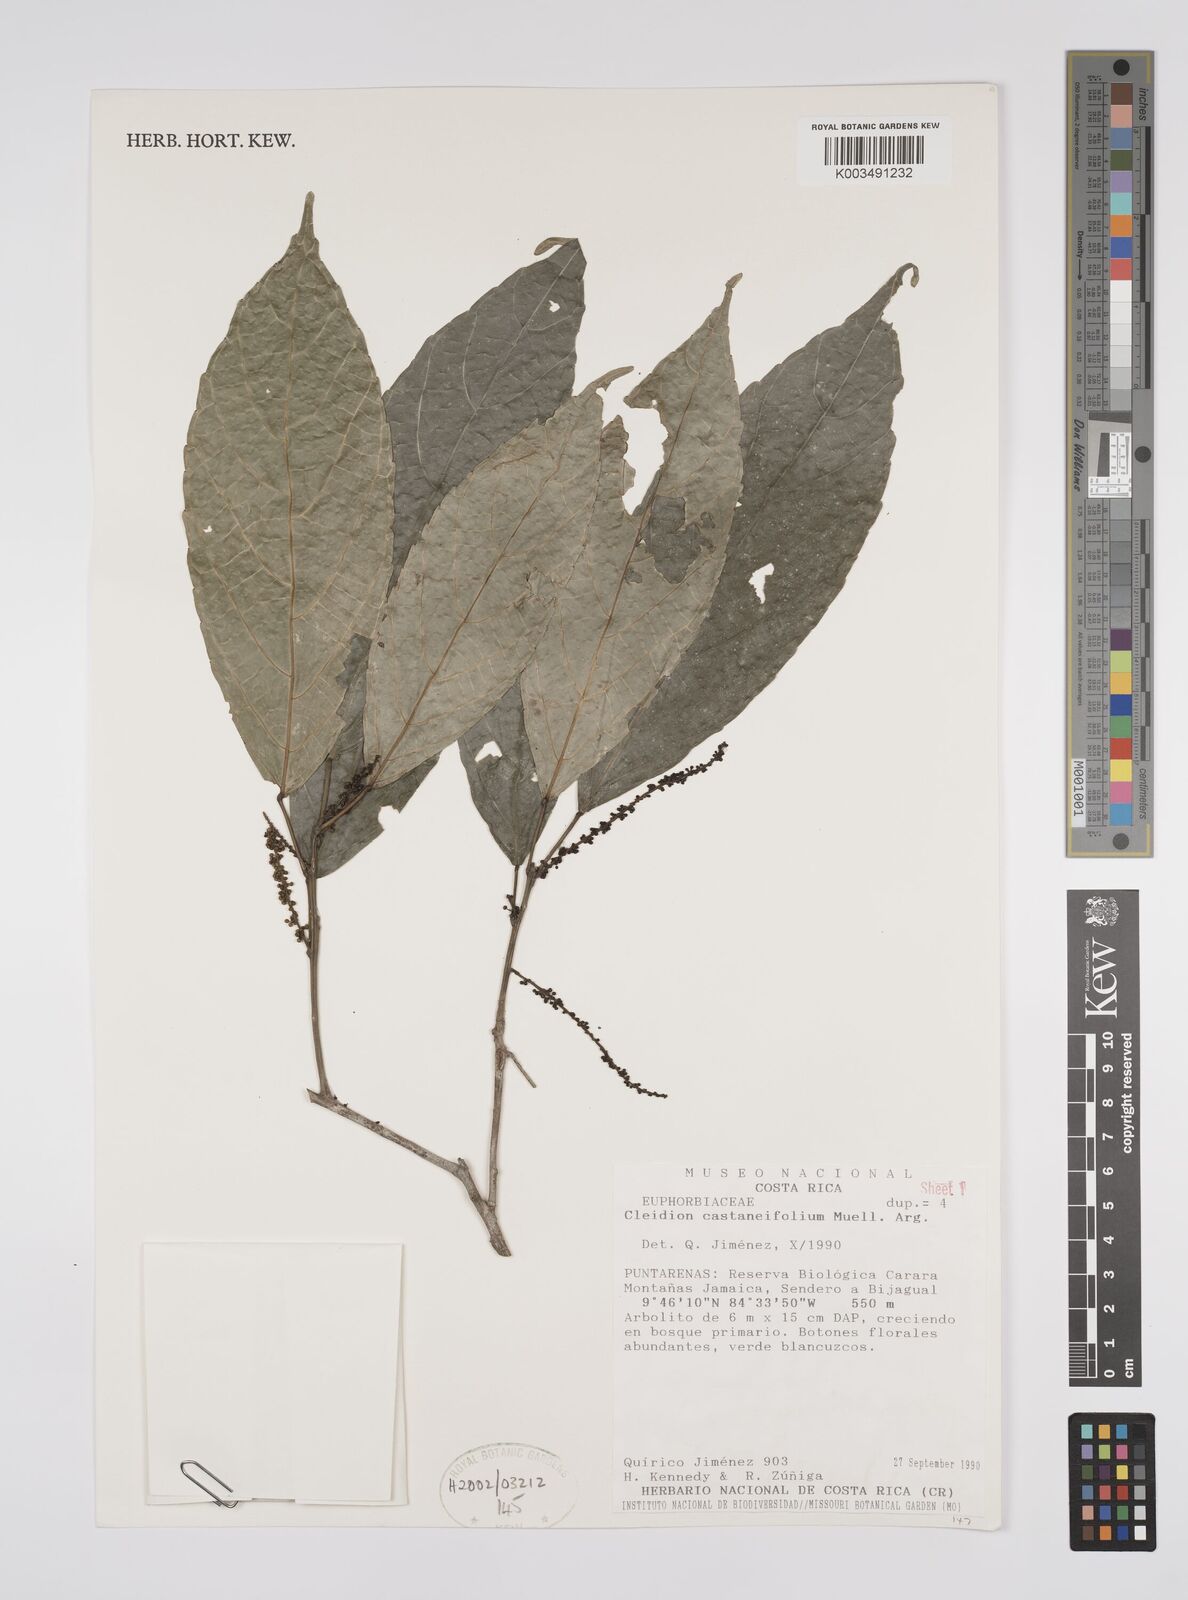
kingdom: Plantae
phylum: Tracheophyta
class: Magnoliopsida
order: Malpighiales
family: Euphorbiaceae
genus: Cleidion
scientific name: Cleidion castaneifolium
